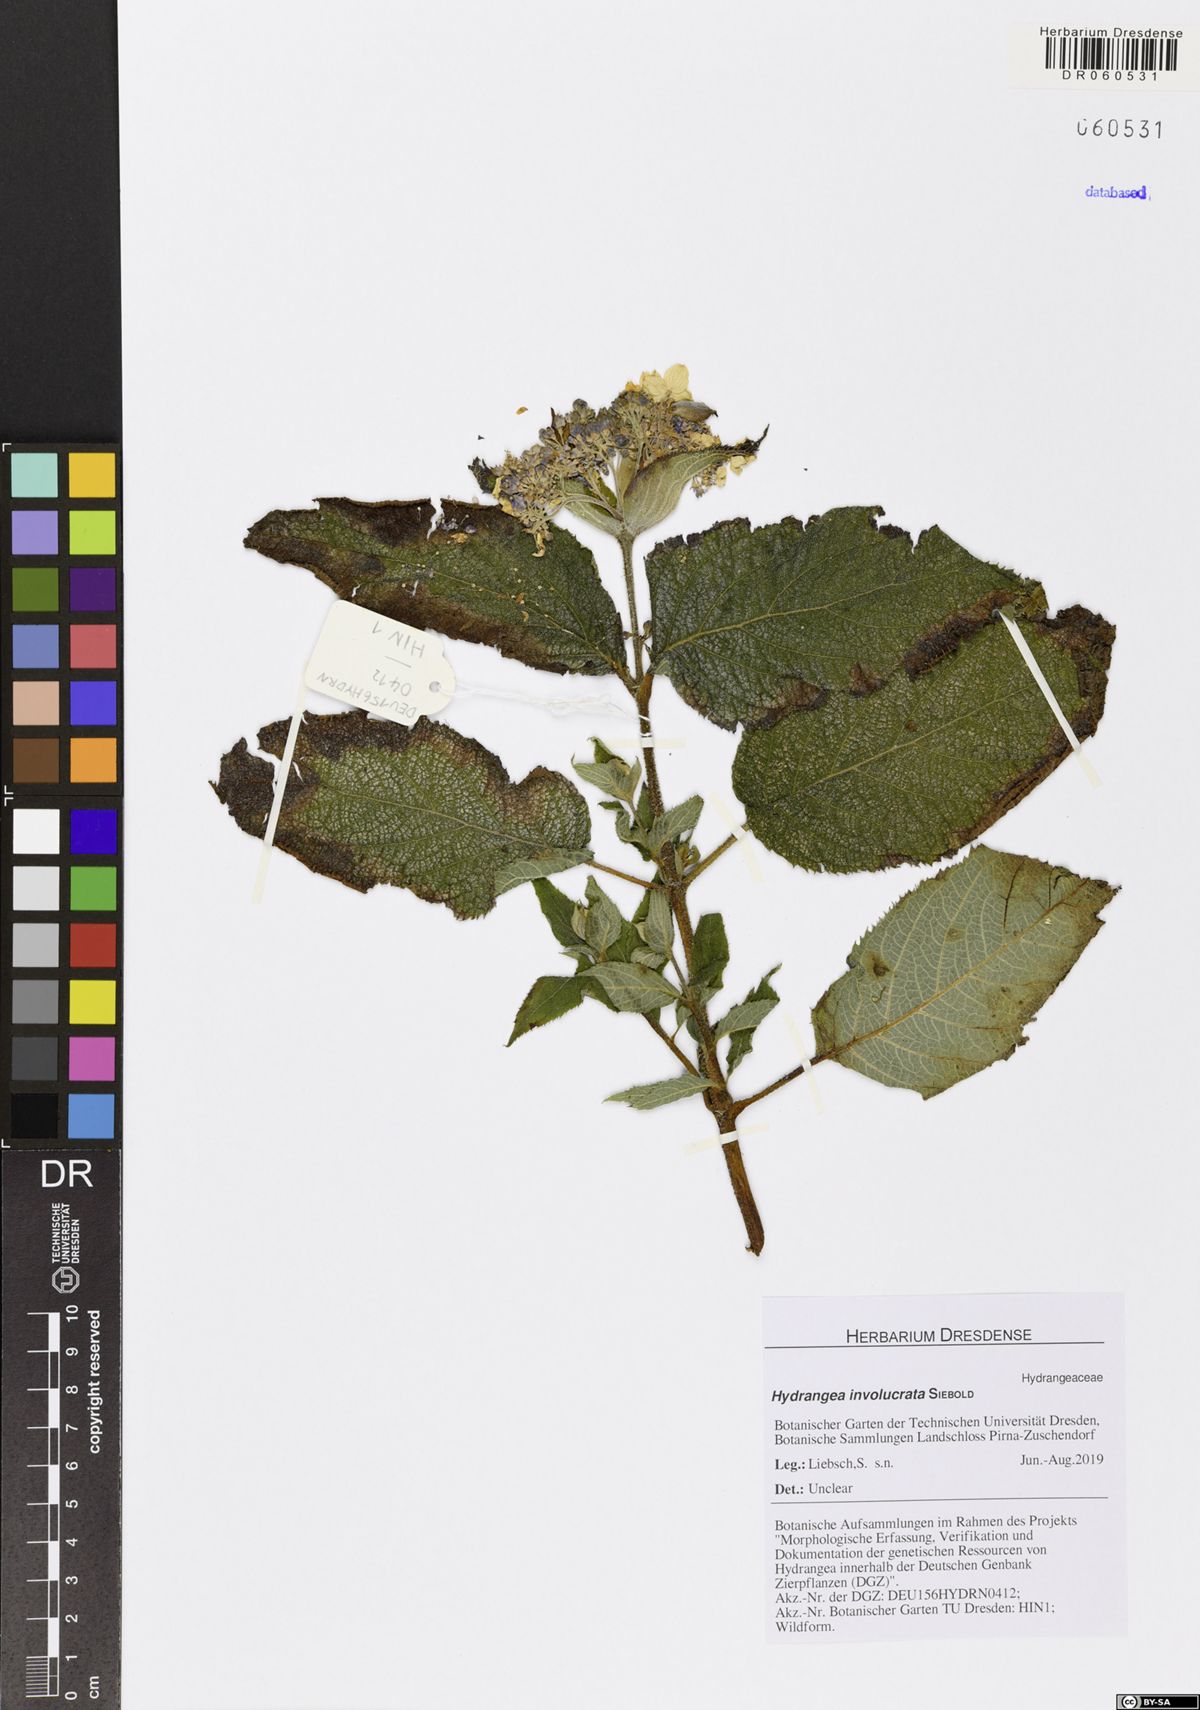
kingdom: Plantae
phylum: Tracheophyta
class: Magnoliopsida
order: Cornales
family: Hydrangeaceae
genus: Hydrangea
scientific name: Hydrangea involucrata
